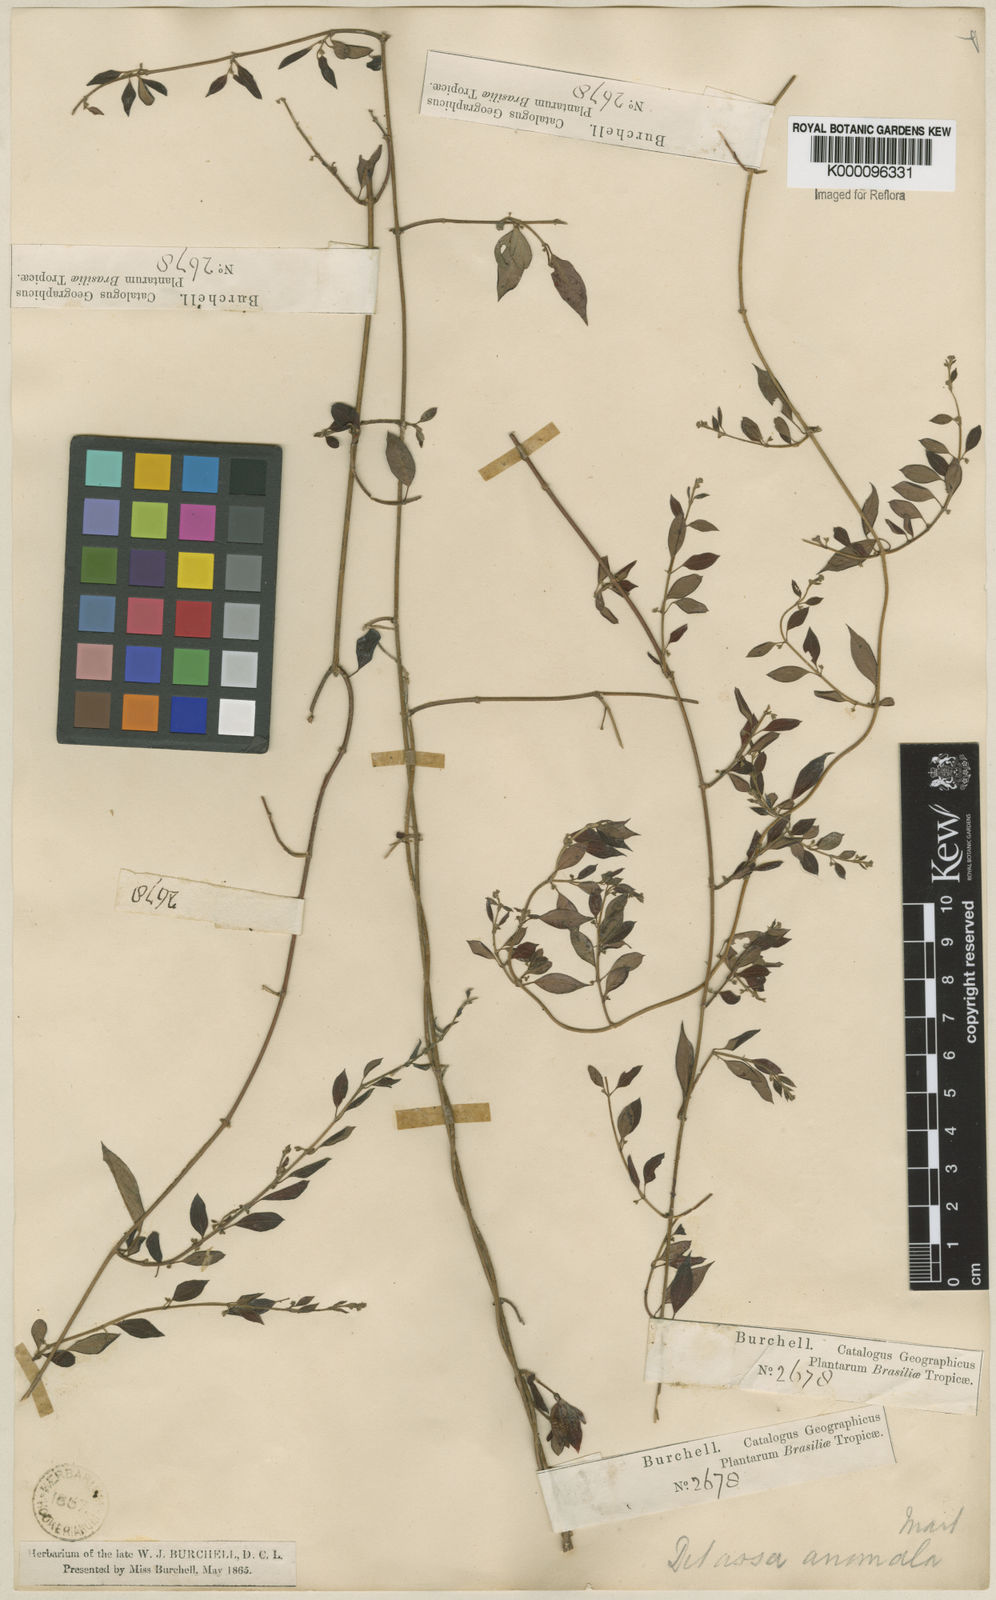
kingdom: Plantae
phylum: Tracheophyta
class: Magnoliopsida
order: Gentianales
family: Apocynaceae
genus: Metastelma
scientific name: Metastelma burchellii
